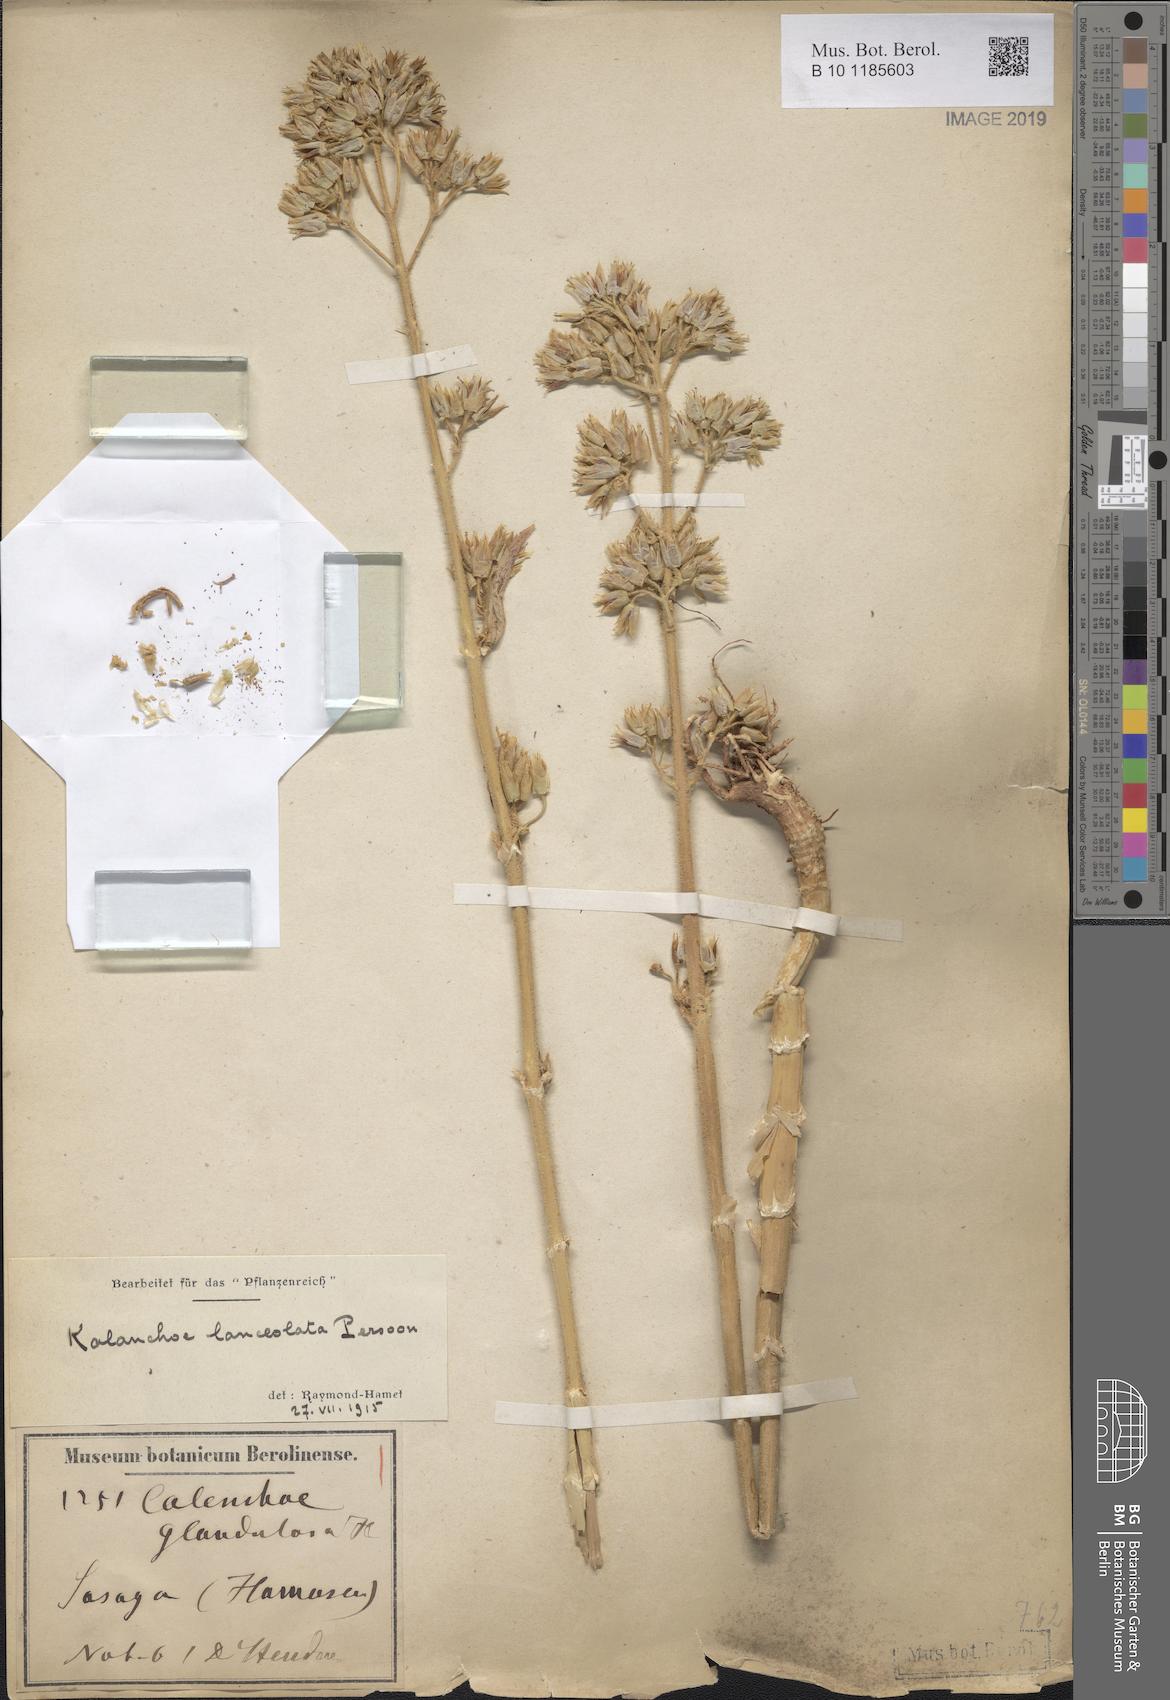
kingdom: Plantae
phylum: Tracheophyta
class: Magnoliopsida
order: Saxifragales
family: Crassulaceae
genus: Kalanchoe
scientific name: Kalanchoe lanceolata
